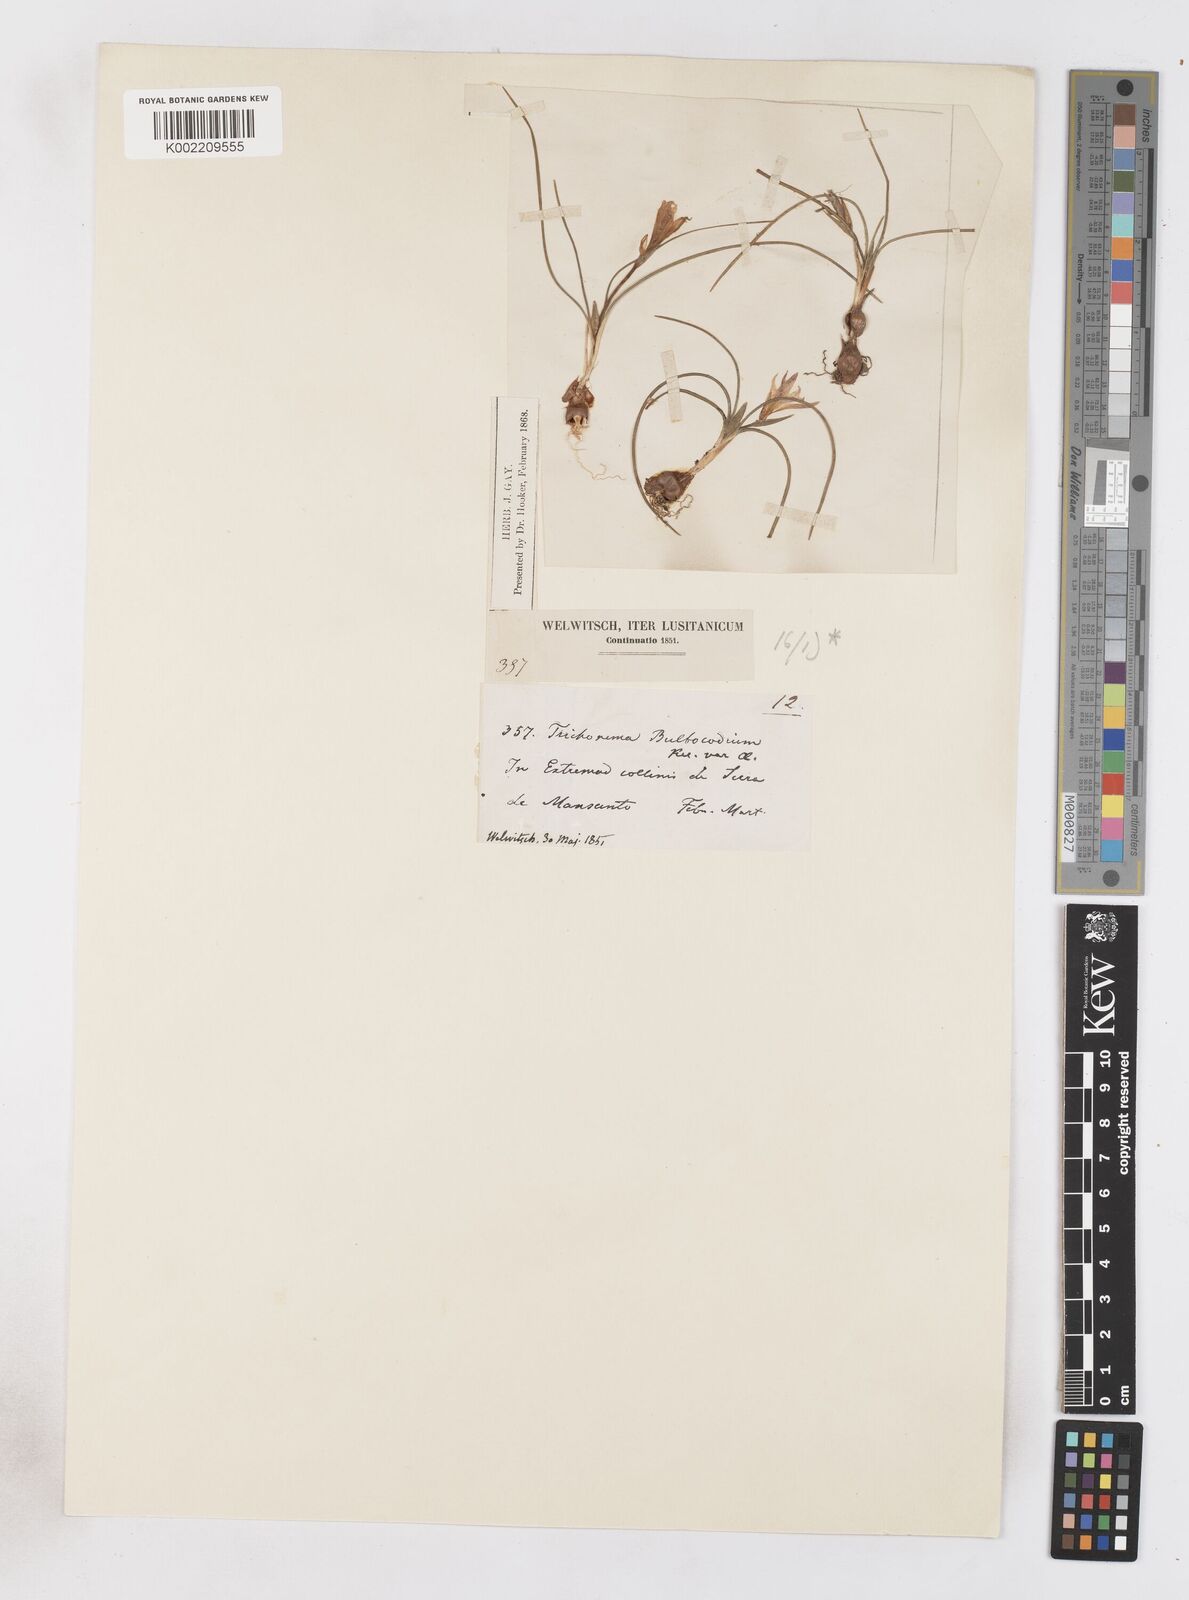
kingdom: Plantae
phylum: Tracheophyta
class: Liliopsida
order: Asparagales
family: Iridaceae
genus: Romulea
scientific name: Romulea bulbocodium
